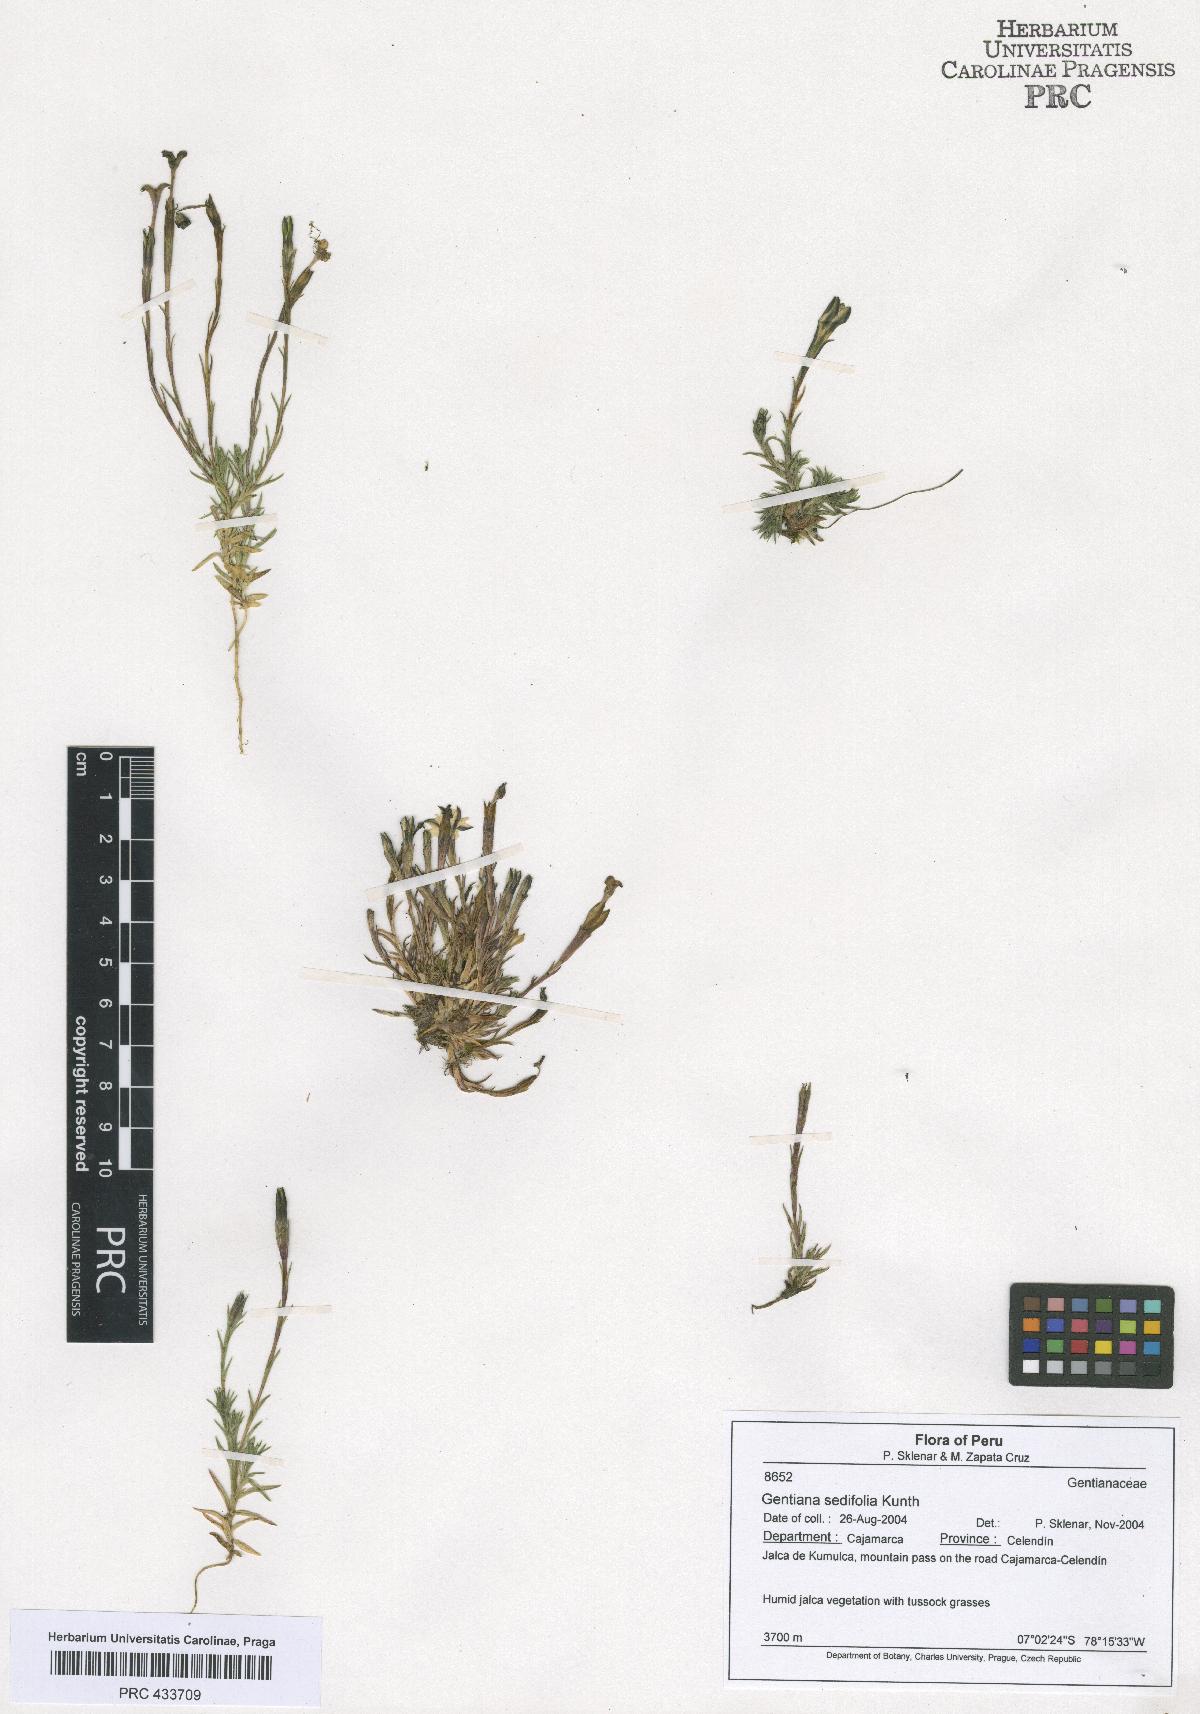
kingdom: Plantae
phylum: Tracheophyta
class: Magnoliopsida
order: Gentianales
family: Gentianaceae
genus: Gentiana
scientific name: Gentiana sedifolia
